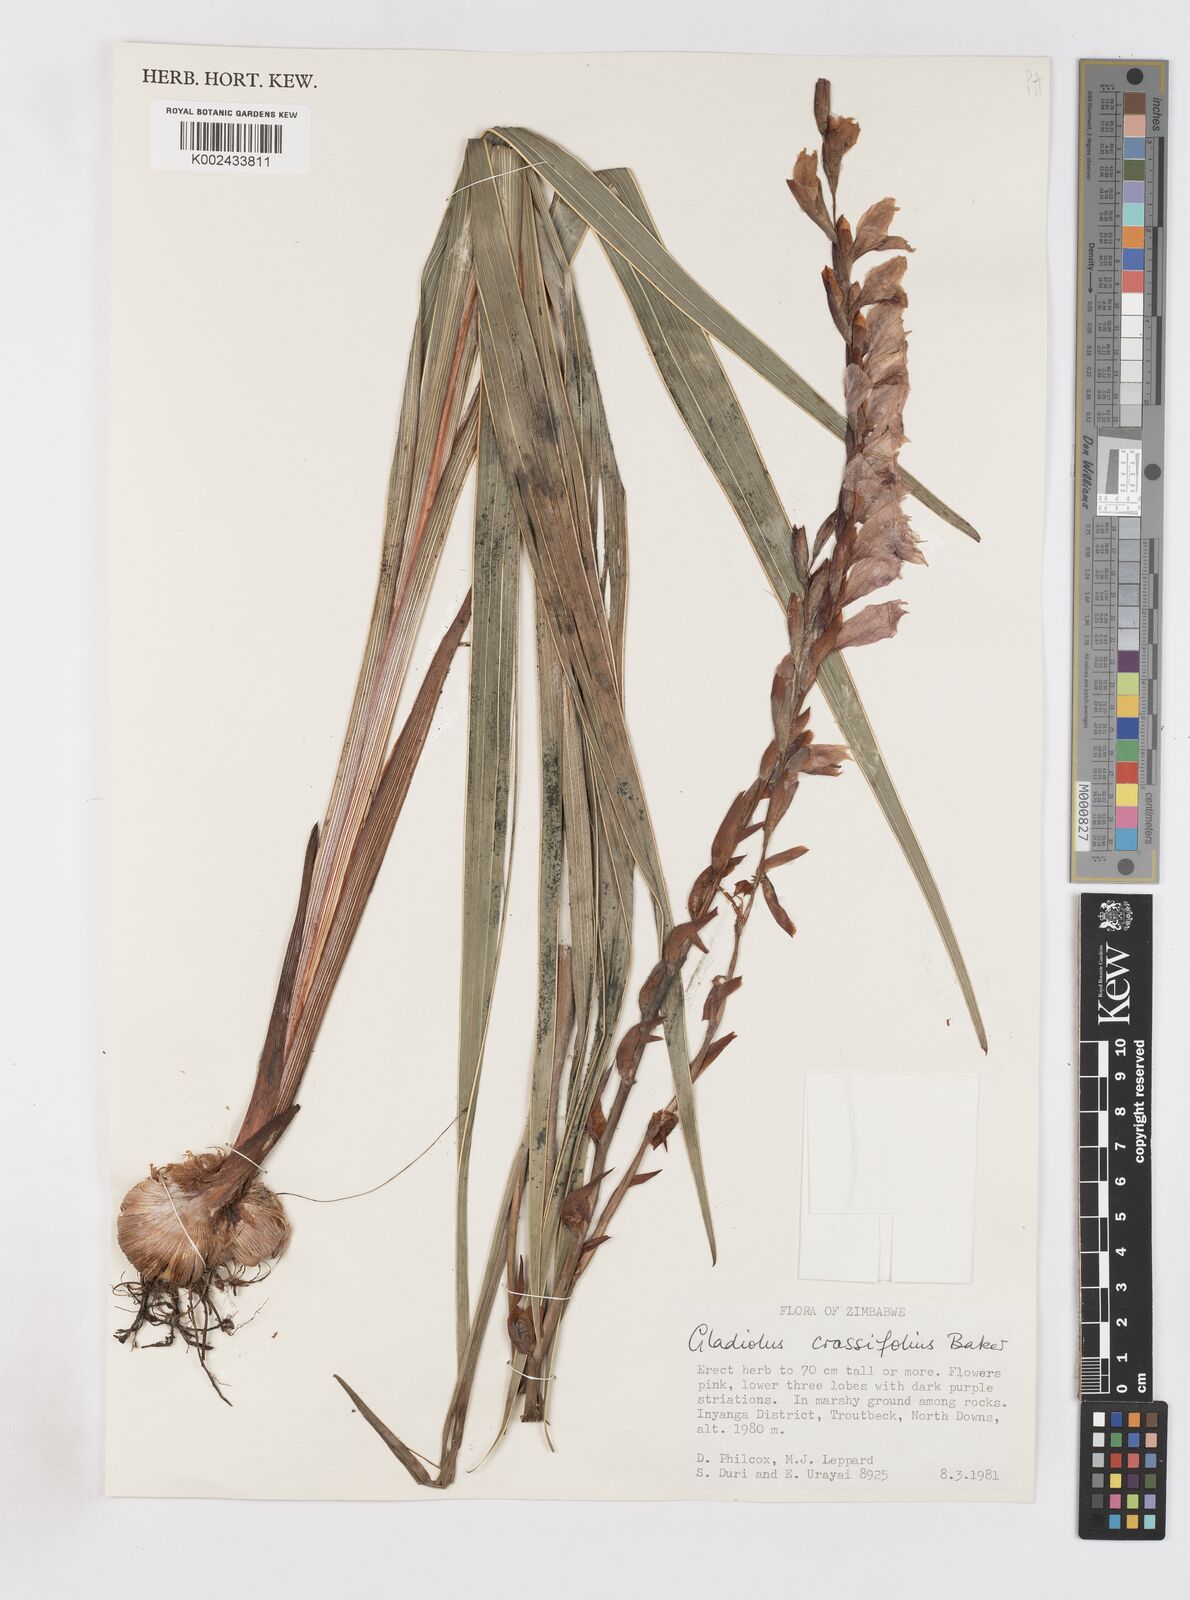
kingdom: Plantae
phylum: Tracheophyta
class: Liliopsida
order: Asparagales
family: Iridaceae
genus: Gladiolus
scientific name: Gladiolus crassifolius
